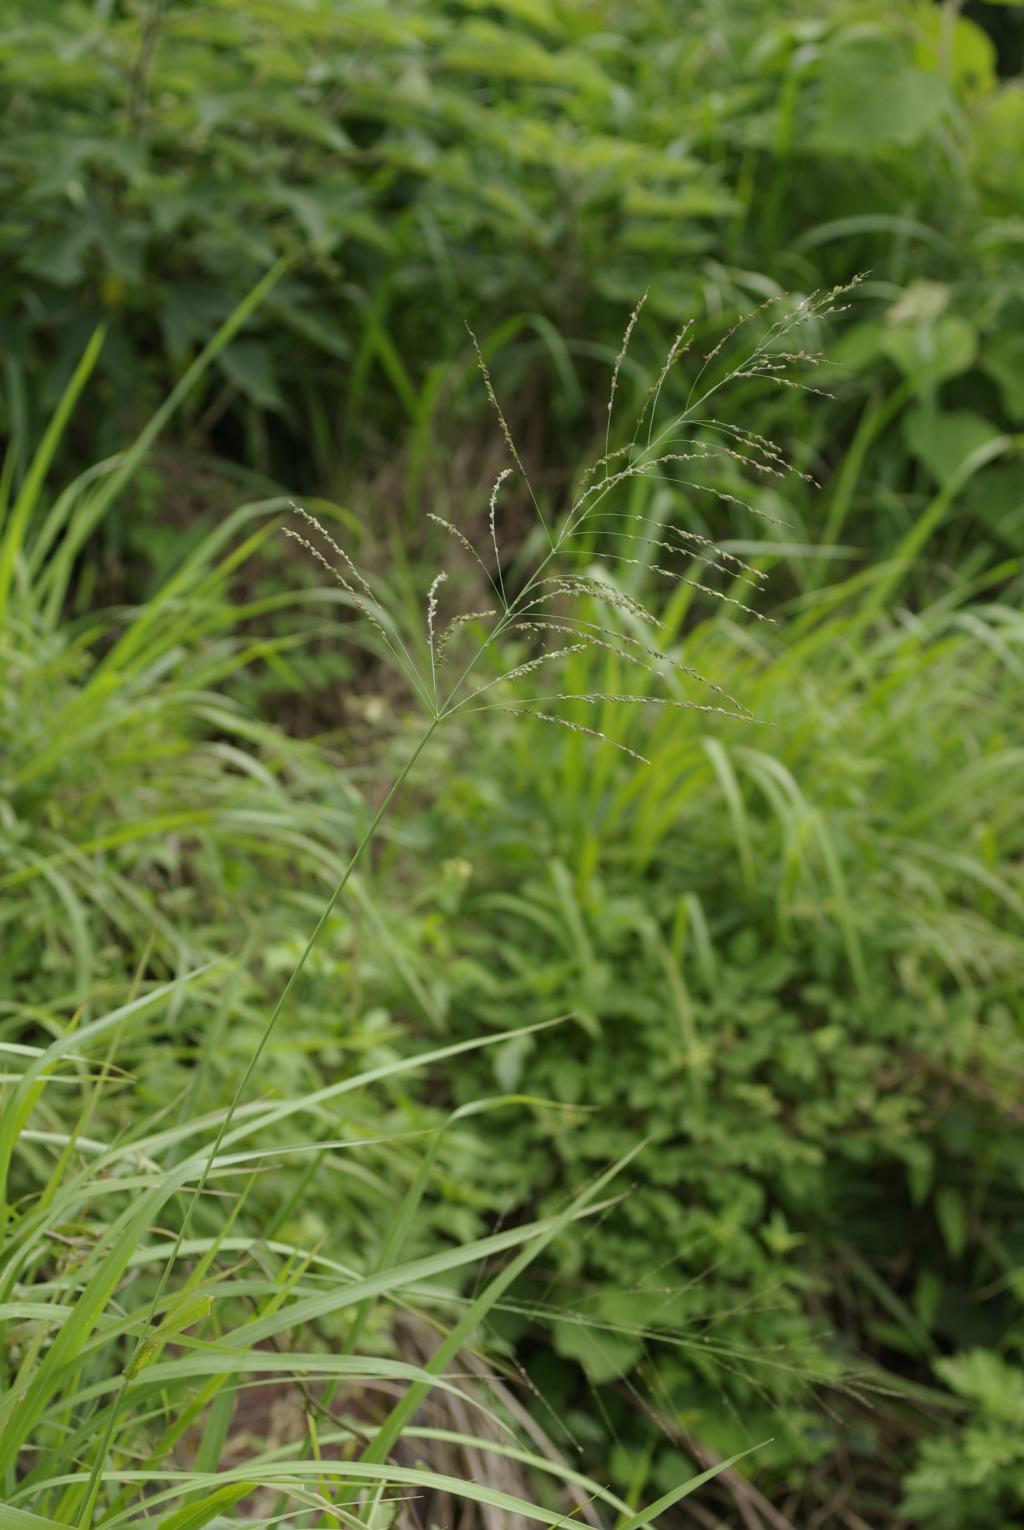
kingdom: Plantae
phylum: Tracheophyta
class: Liliopsida
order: Poales
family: Poaceae
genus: Megathyrsus
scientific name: Megathyrsus maximus
